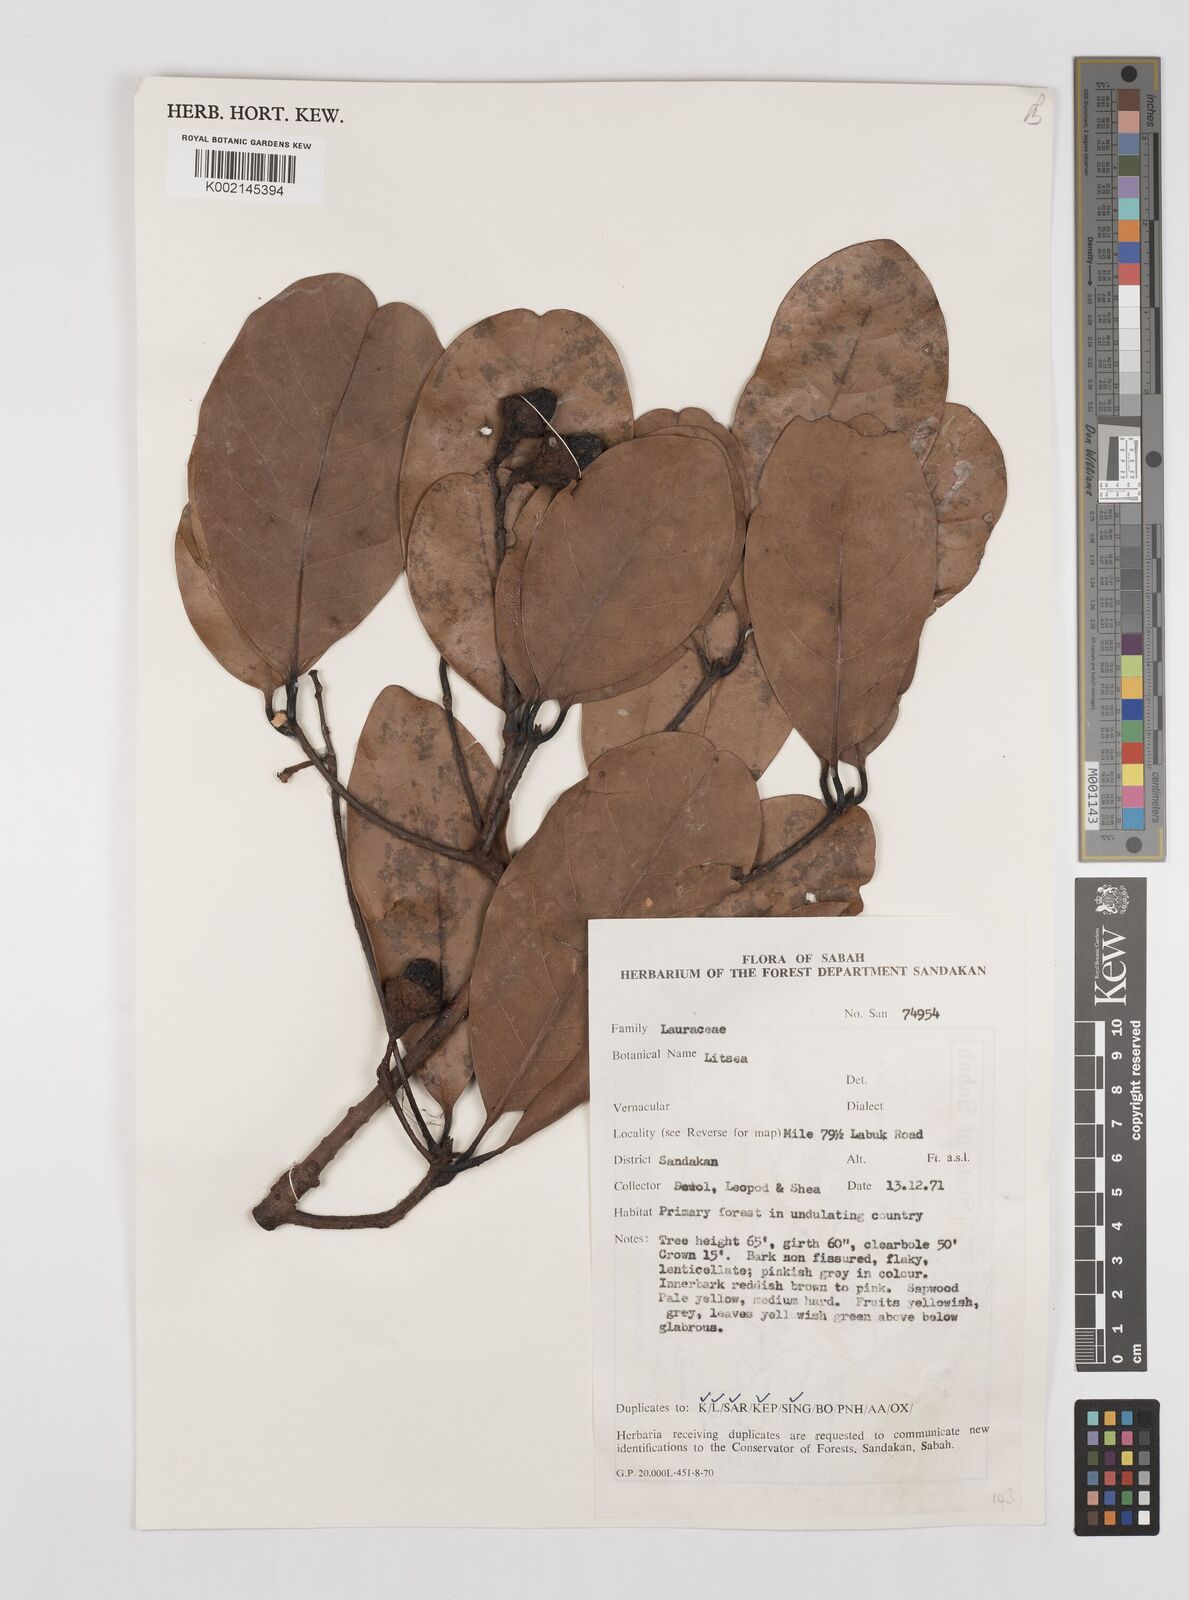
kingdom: Plantae
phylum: Tracheophyta
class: Magnoliopsida
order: Laurales
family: Lauraceae
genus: Litsea
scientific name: Litsea
